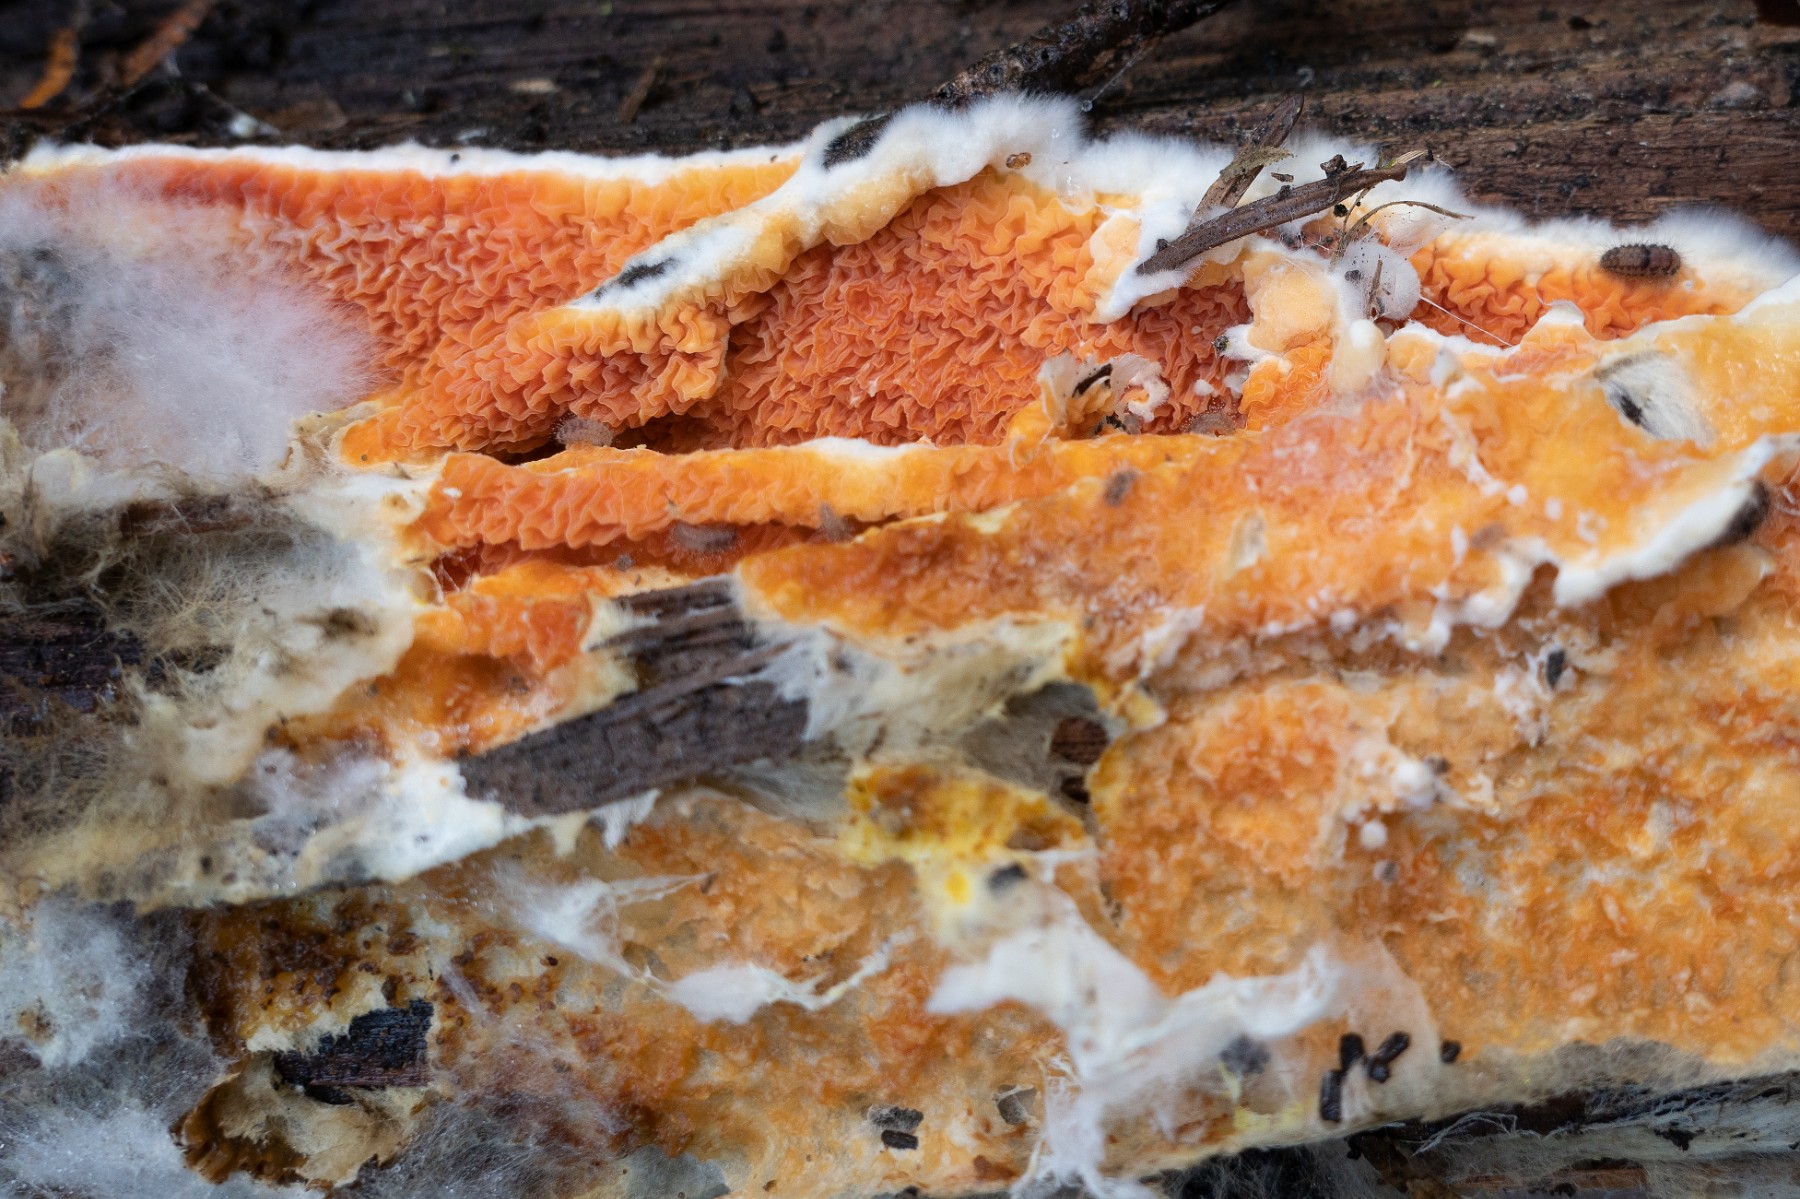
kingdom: Fungi
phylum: Basidiomycota
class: Agaricomycetes
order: Boletales
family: Hygrophoropsidaceae
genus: Leucogyrophana
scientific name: Leucogyrophana
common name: hussvamp
